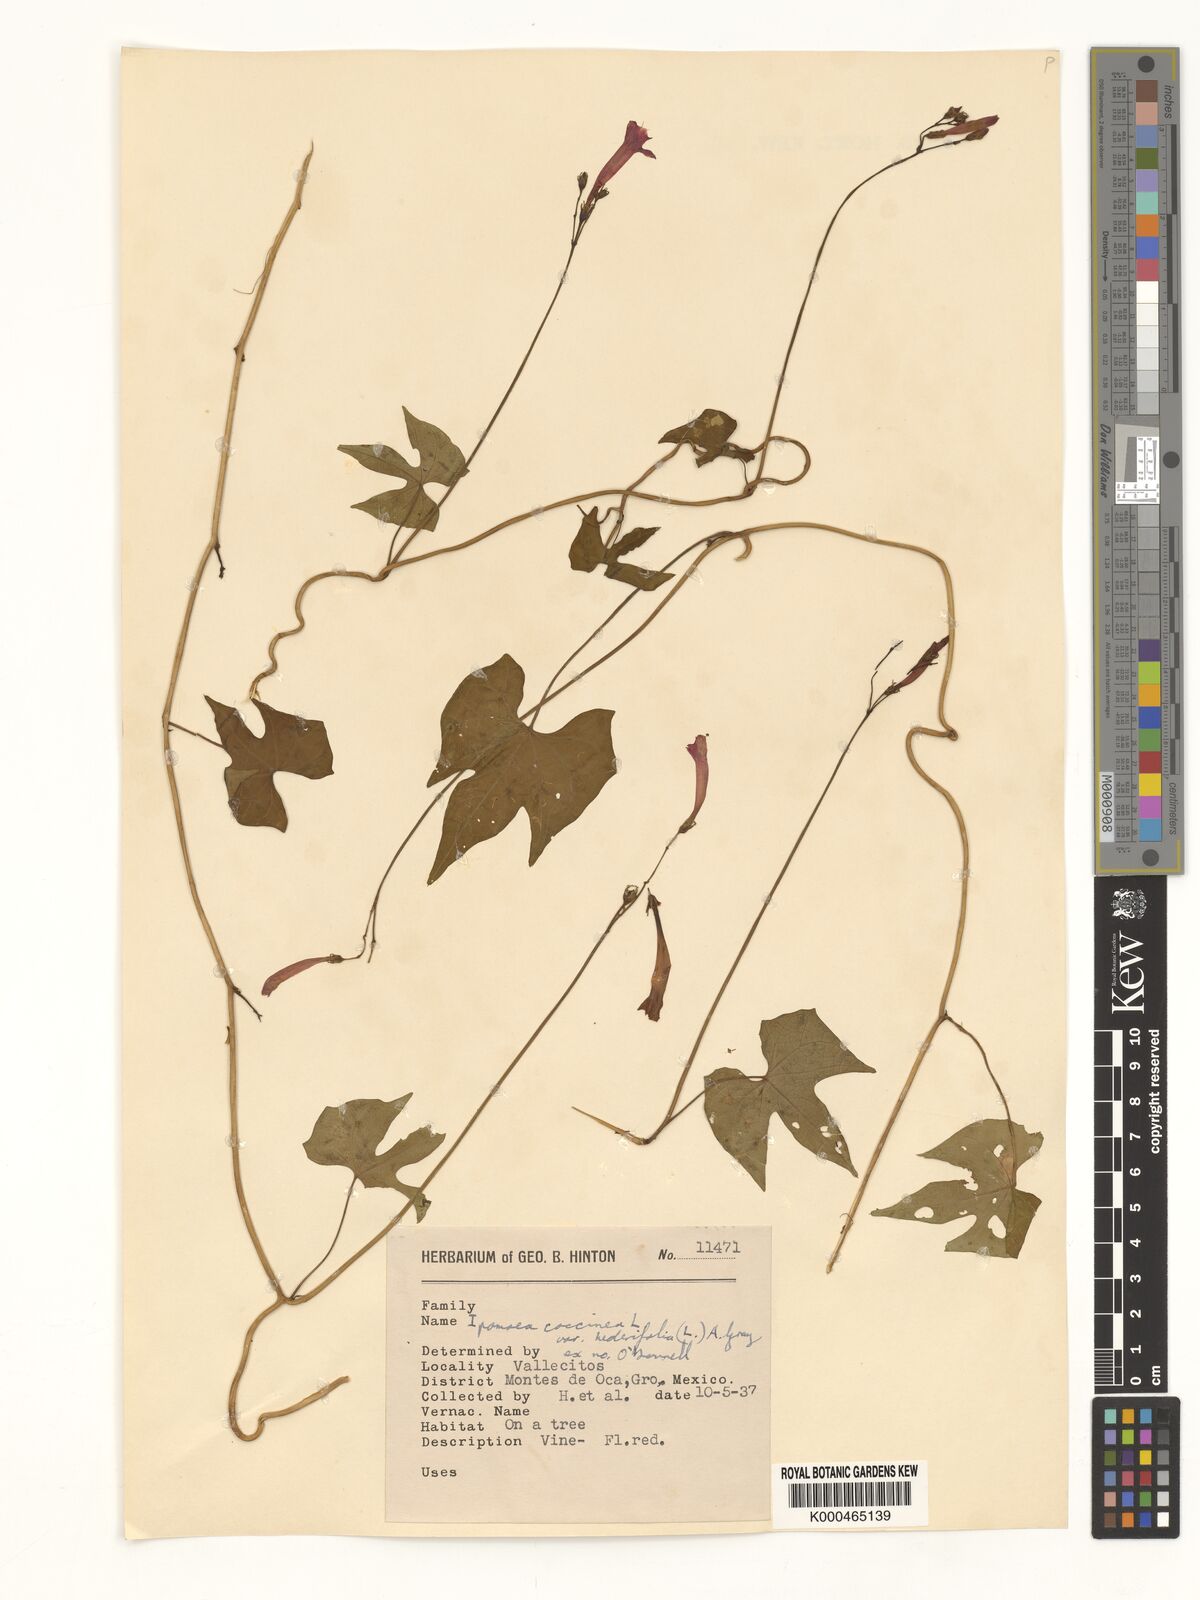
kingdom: Plantae
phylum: Tracheophyta
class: Magnoliopsida
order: Solanales
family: Convolvulaceae
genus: Ipomoea
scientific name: Ipomoea hederifolia
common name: Ivy-leaf morning-glory
